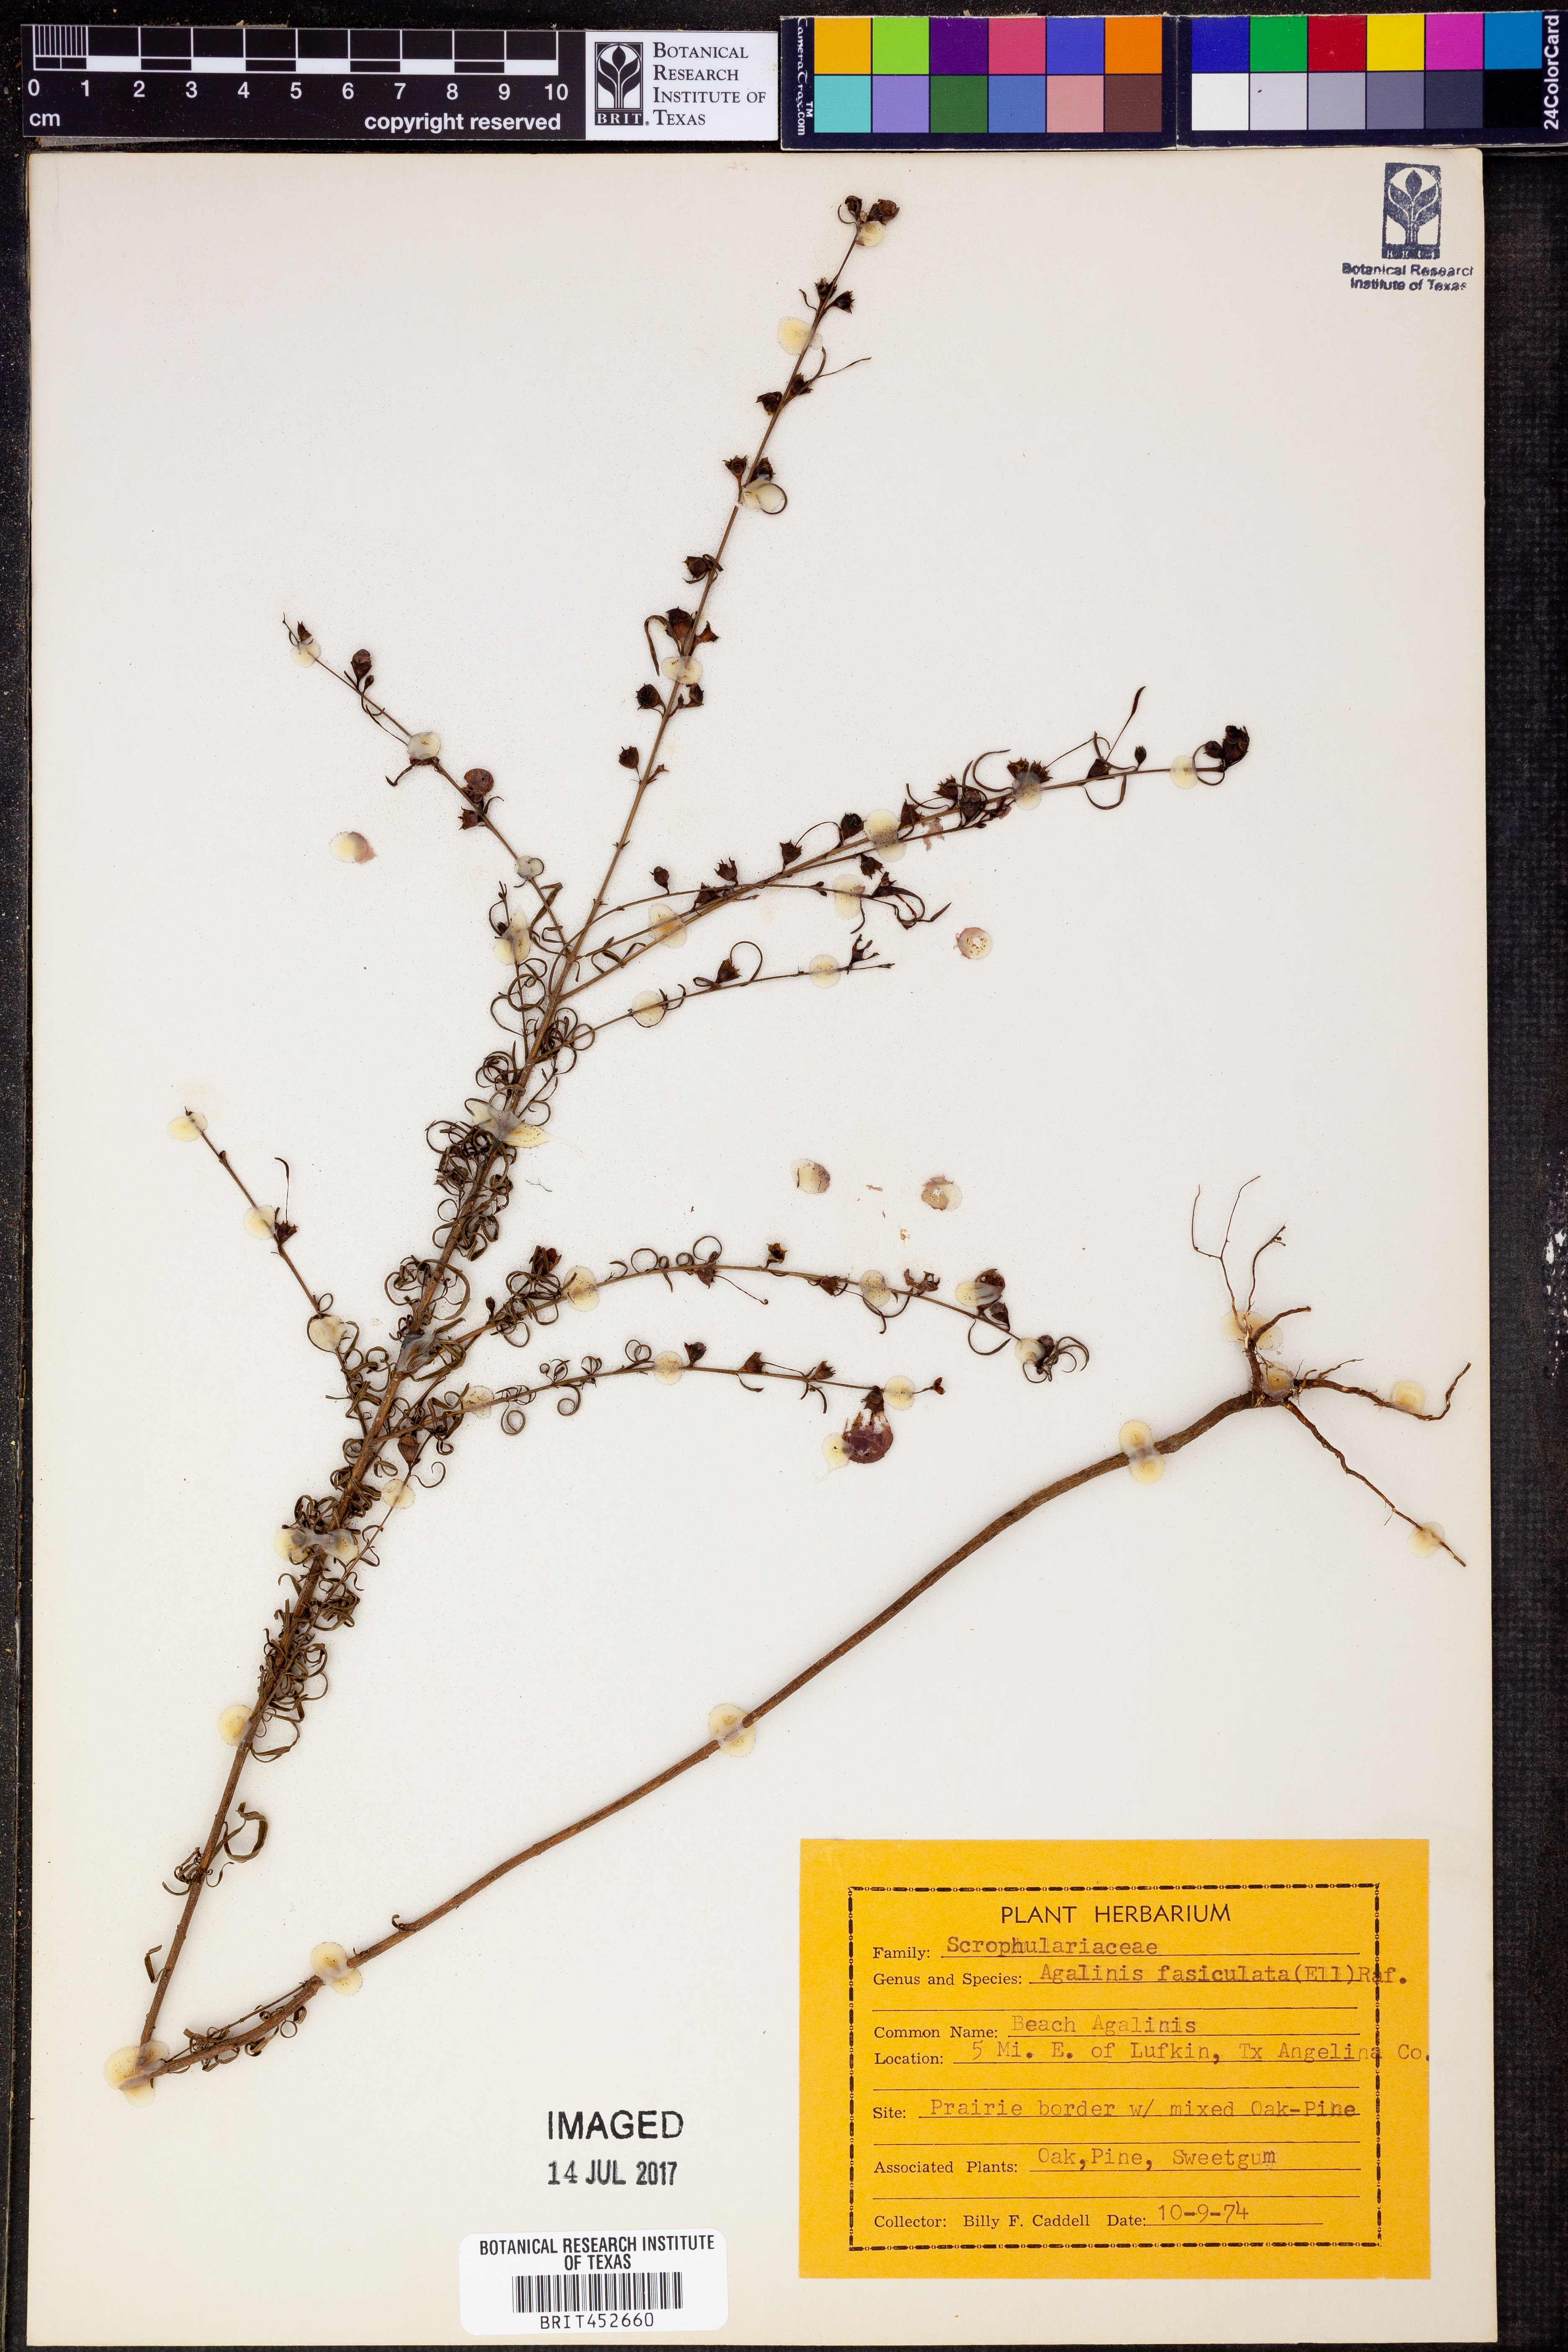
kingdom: Plantae
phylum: Tracheophyta
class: Magnoliopsida
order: Lamiales
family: Orobanchaceae
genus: Agalinis
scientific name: Agalinis fasciculata
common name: Beach false foxglove
